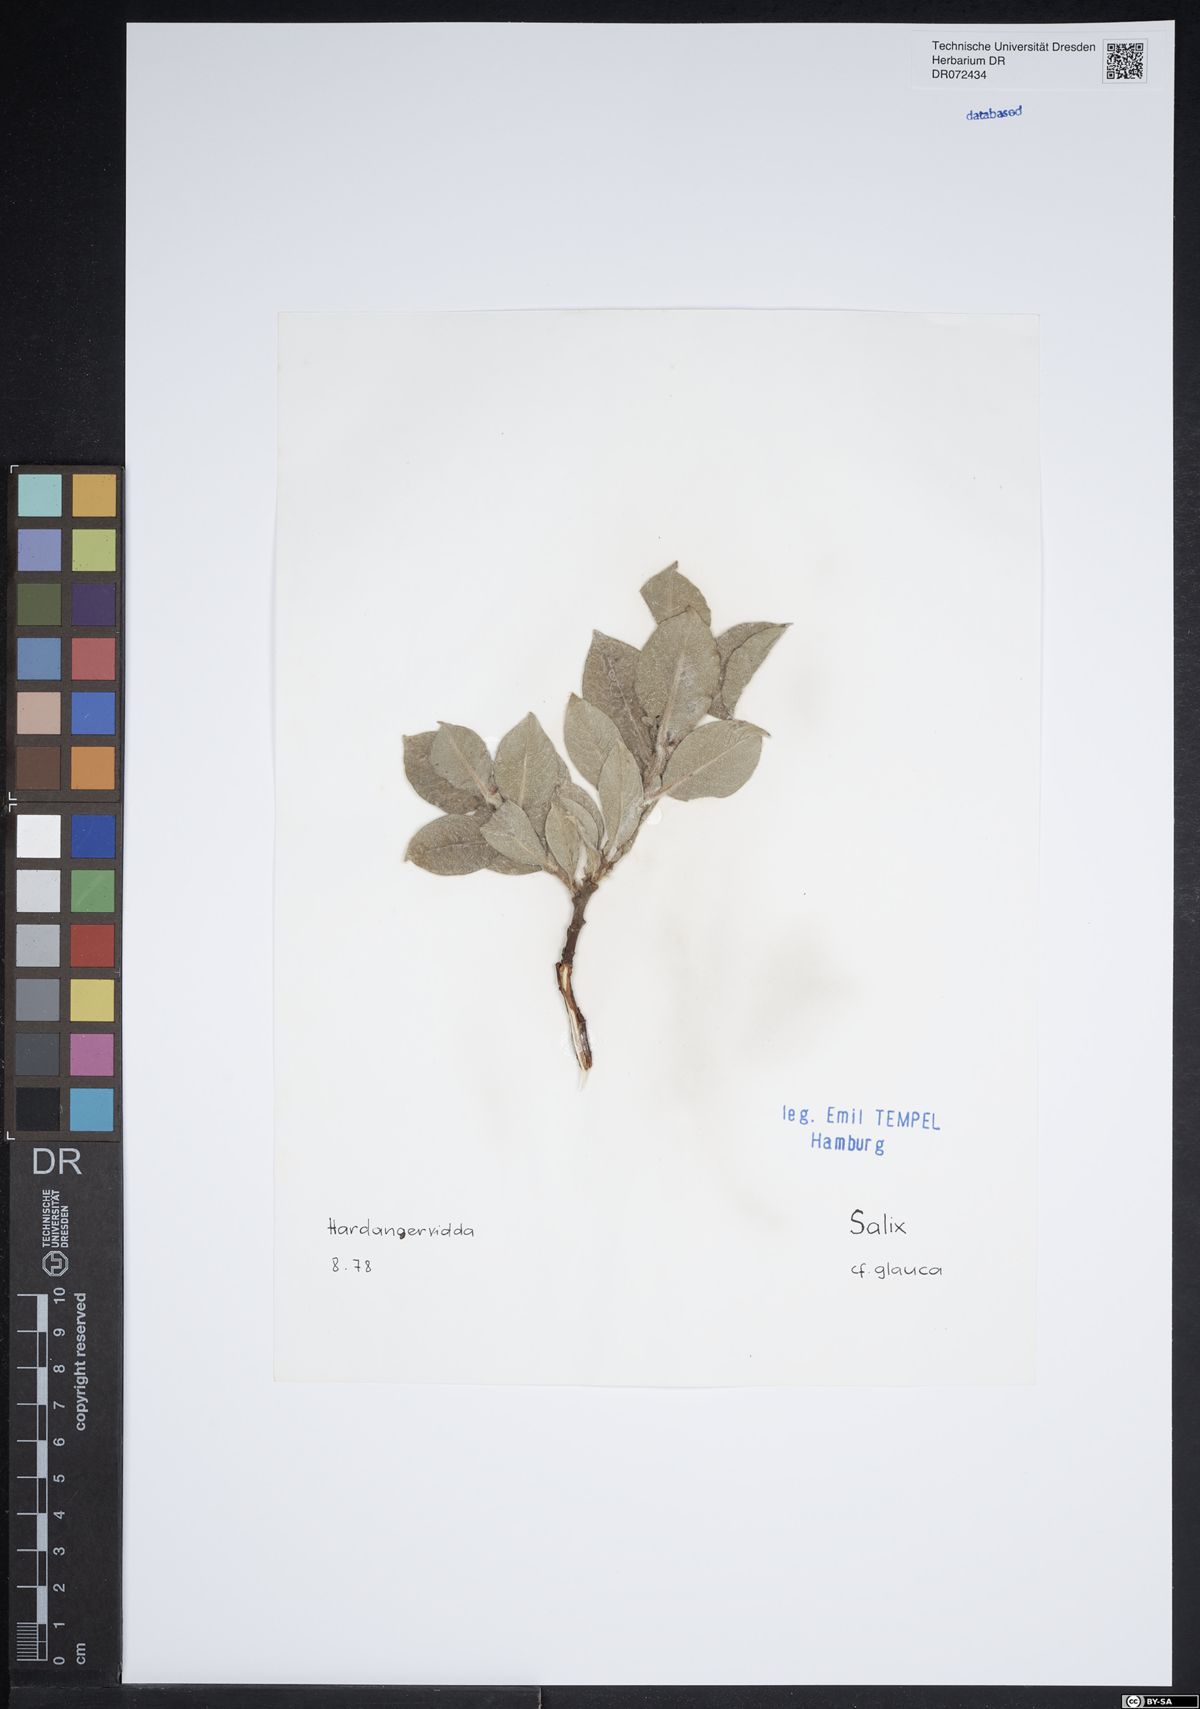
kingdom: Plantae
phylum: Tracheophyta
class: Magnoliopsida
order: Malpighiales
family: Salicaceae
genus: Salix
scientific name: Salix glauca
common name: Glaucous willow
